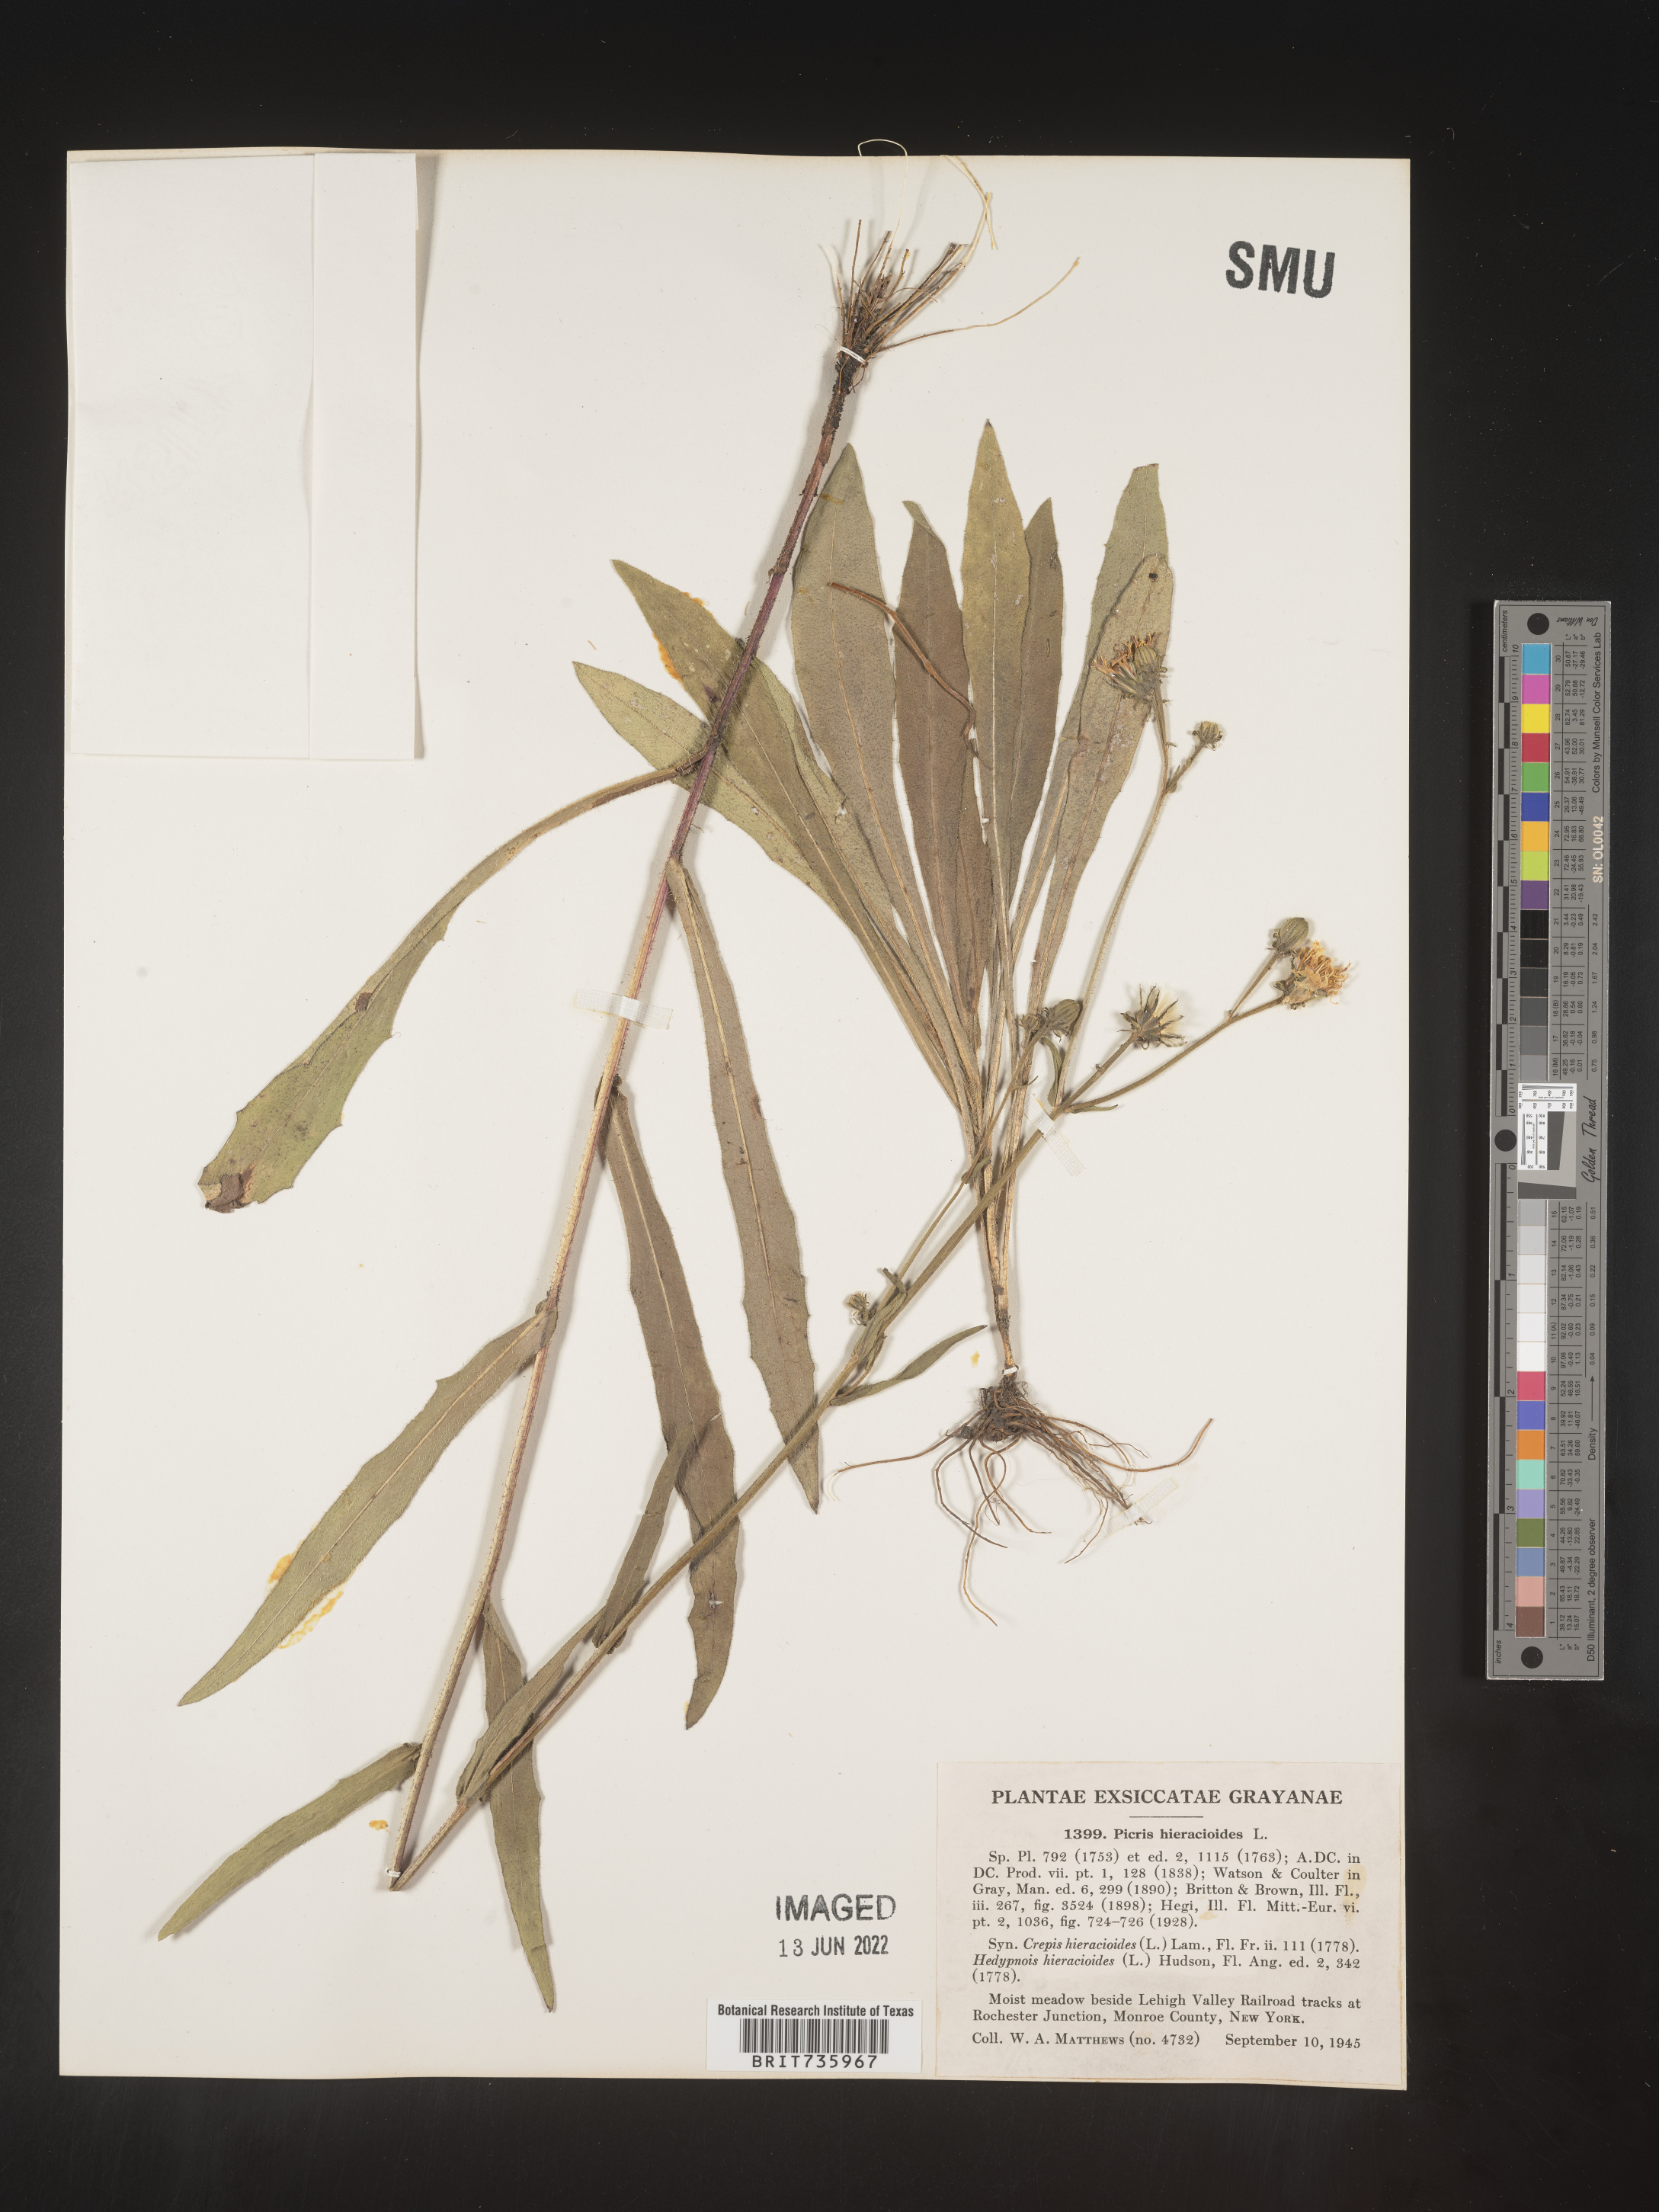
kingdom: Plantae
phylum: Tracheophyta
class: Magnoliopsida
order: Asterales
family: Asteraceae
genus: Picris
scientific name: Picris hieracioides
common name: Hawkweed oxtongue
